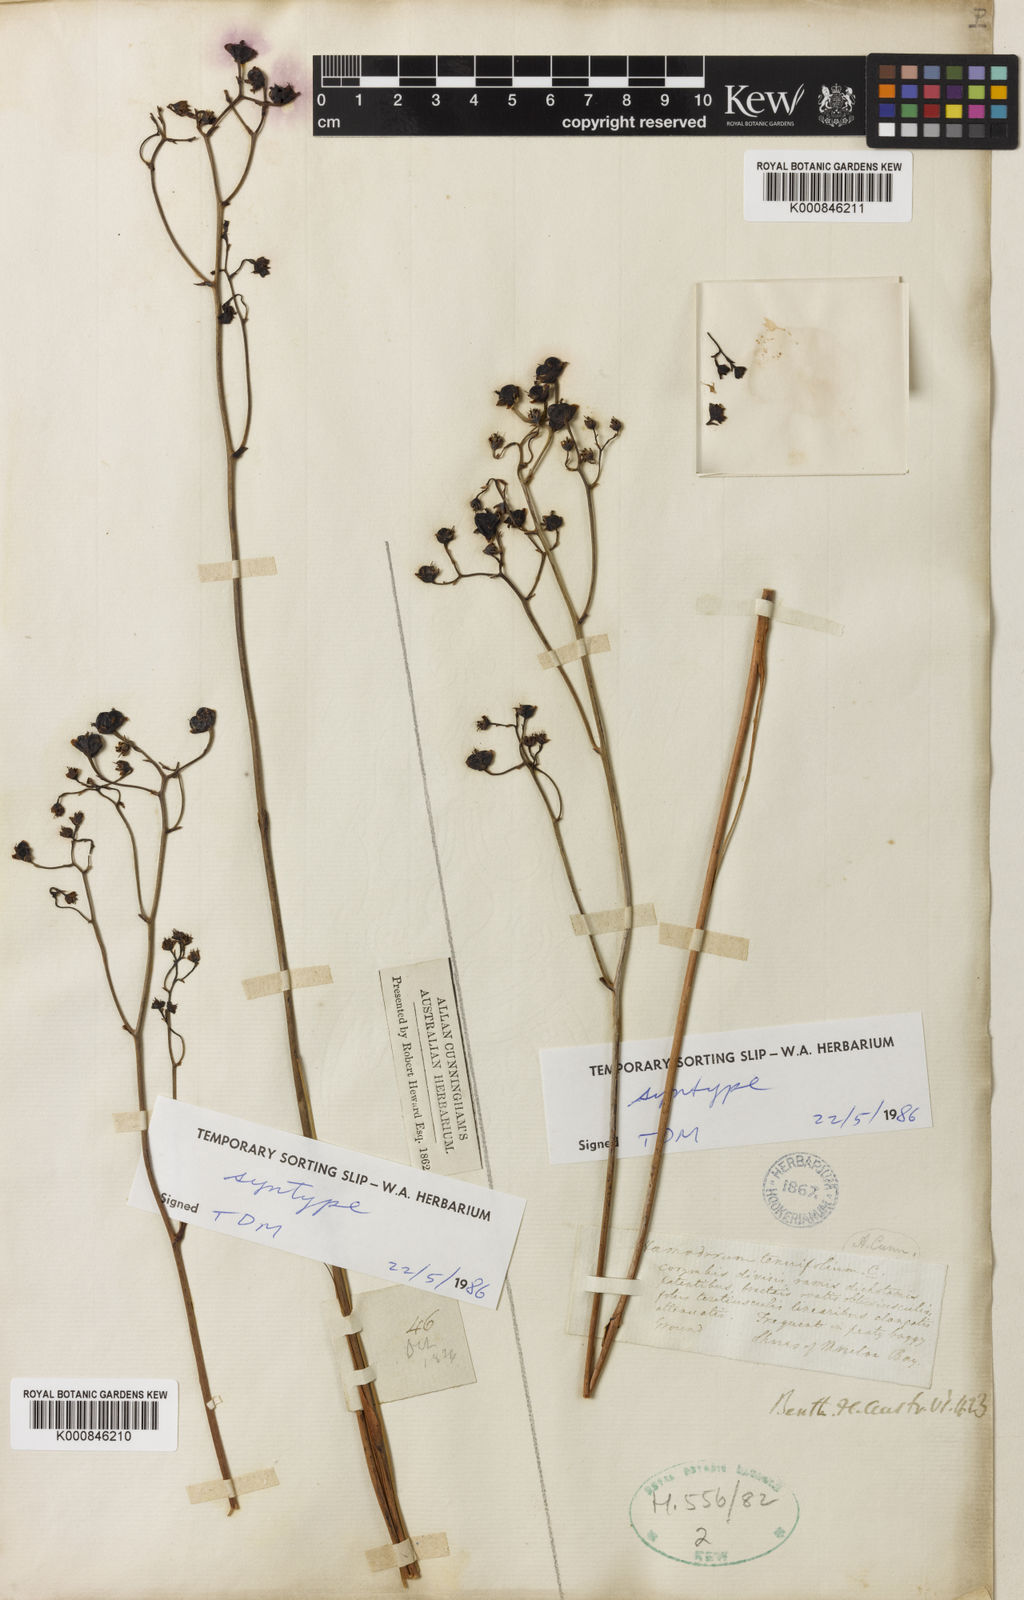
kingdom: Plantae
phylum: Tracheophyta
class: Liliopsida
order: Commelinales
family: Haemodoraceae
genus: Haemodorum
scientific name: Haemodorum tenuifolium
